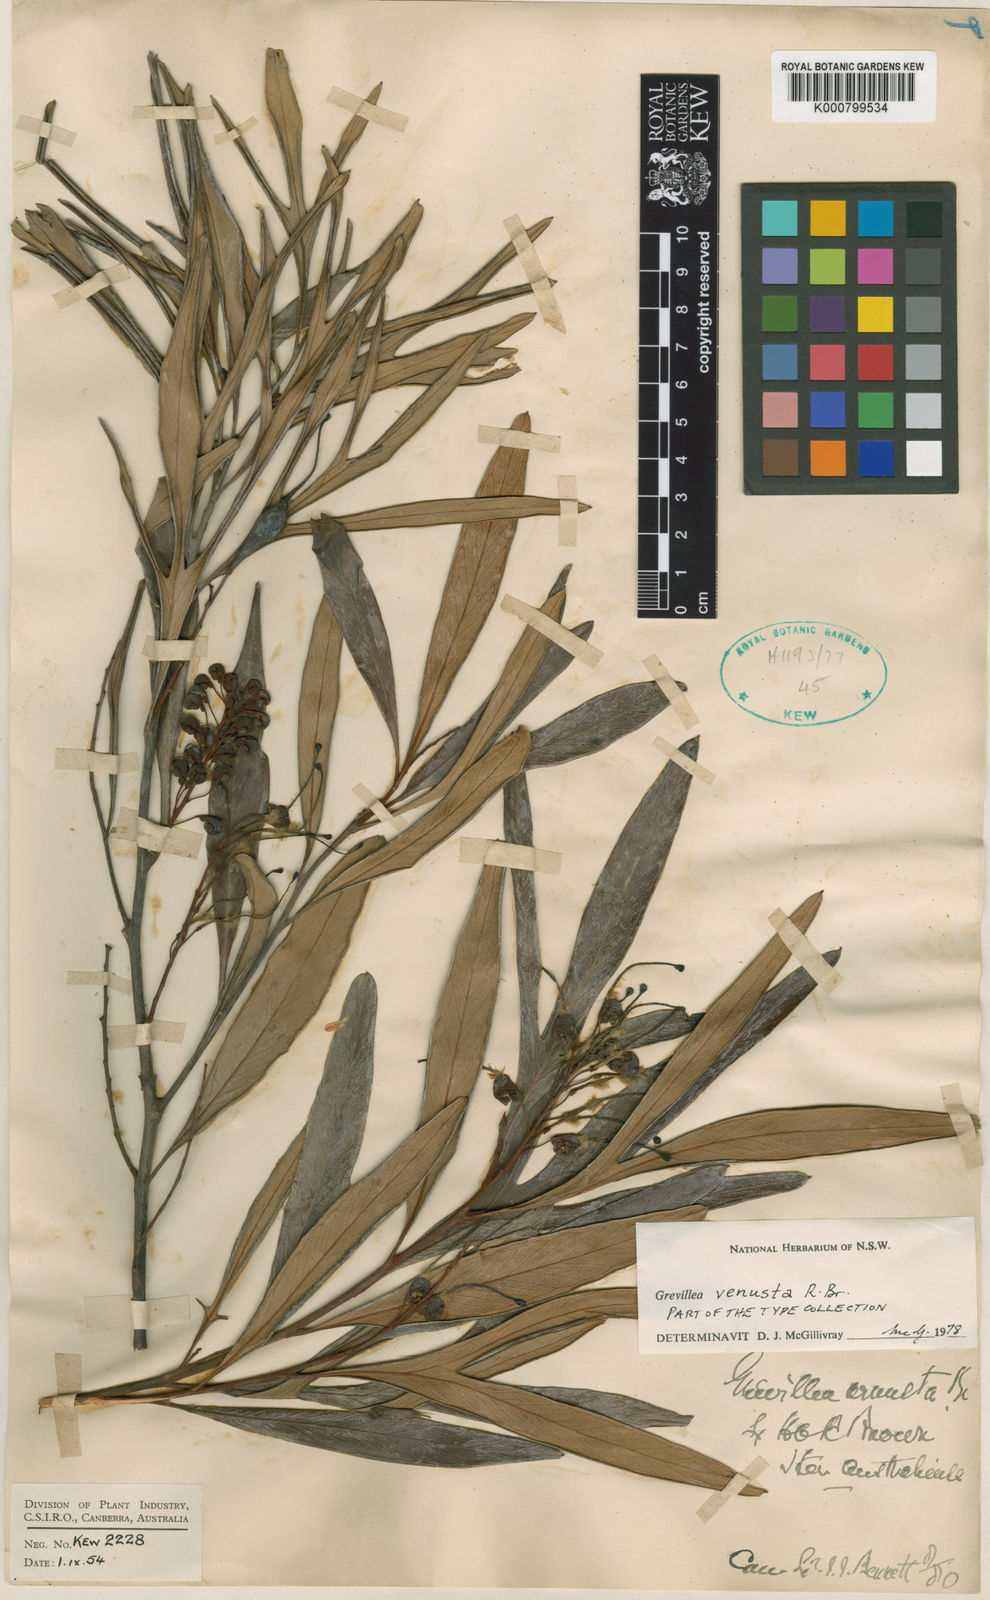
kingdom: Plantae
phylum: Tracheophyta
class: Magnoliopsida
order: Proteales
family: Proteaceae
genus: Grevillea
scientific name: Grevillea venusta
